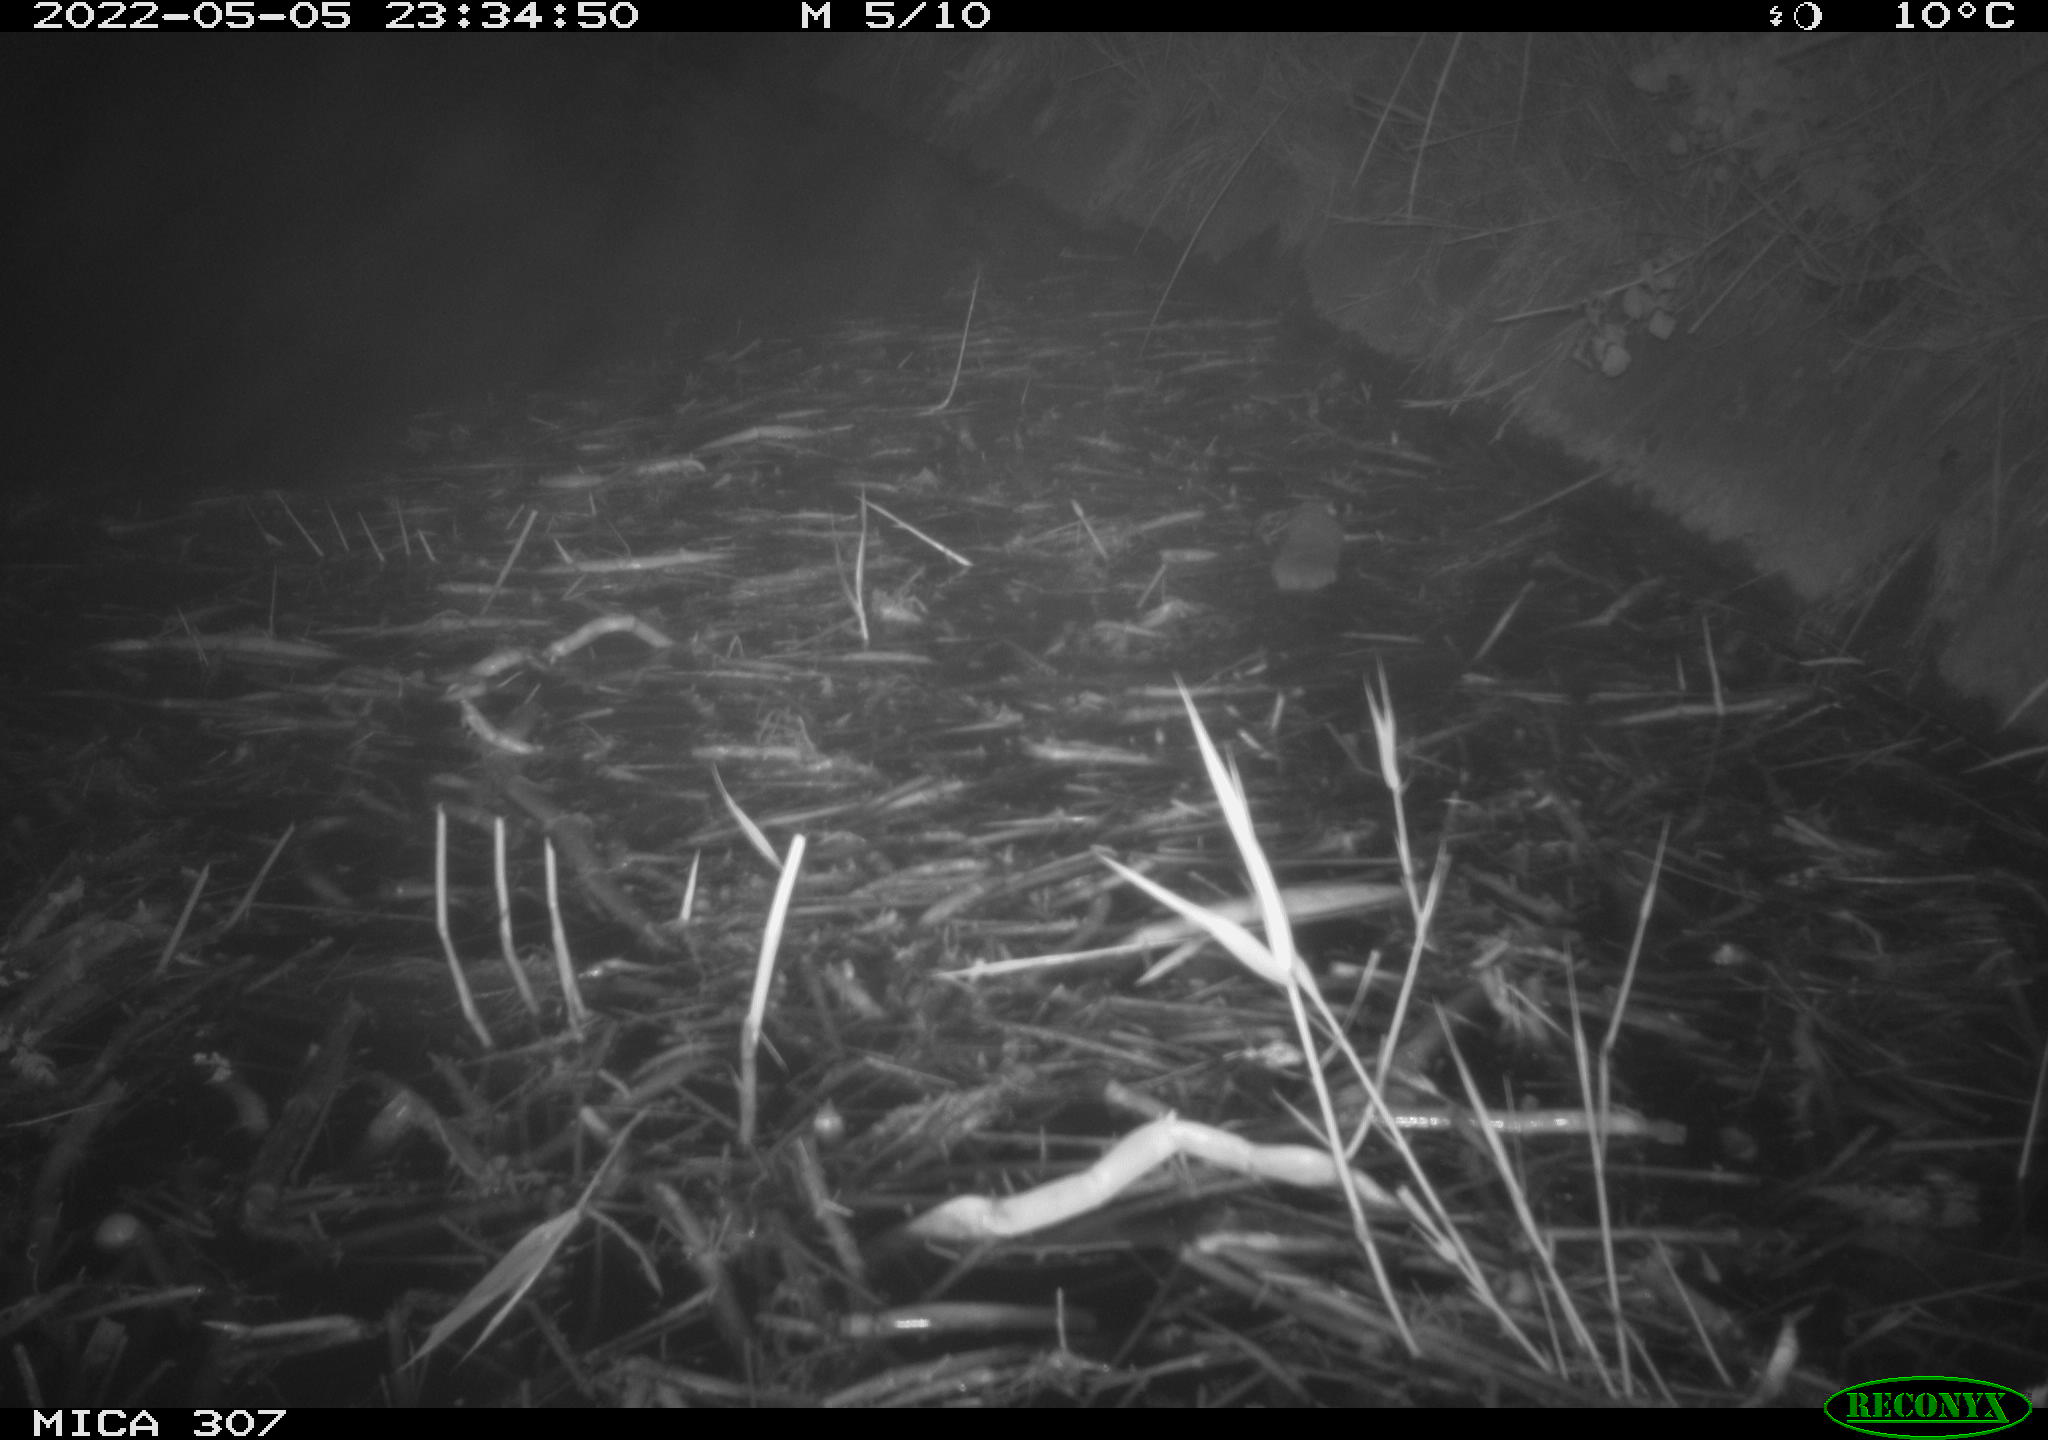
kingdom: Animalia
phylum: Chordata
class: Mammalia
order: Rodentia
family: Cricetidae
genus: Ondatra
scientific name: Ondatra zibethicus
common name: Muskrat
